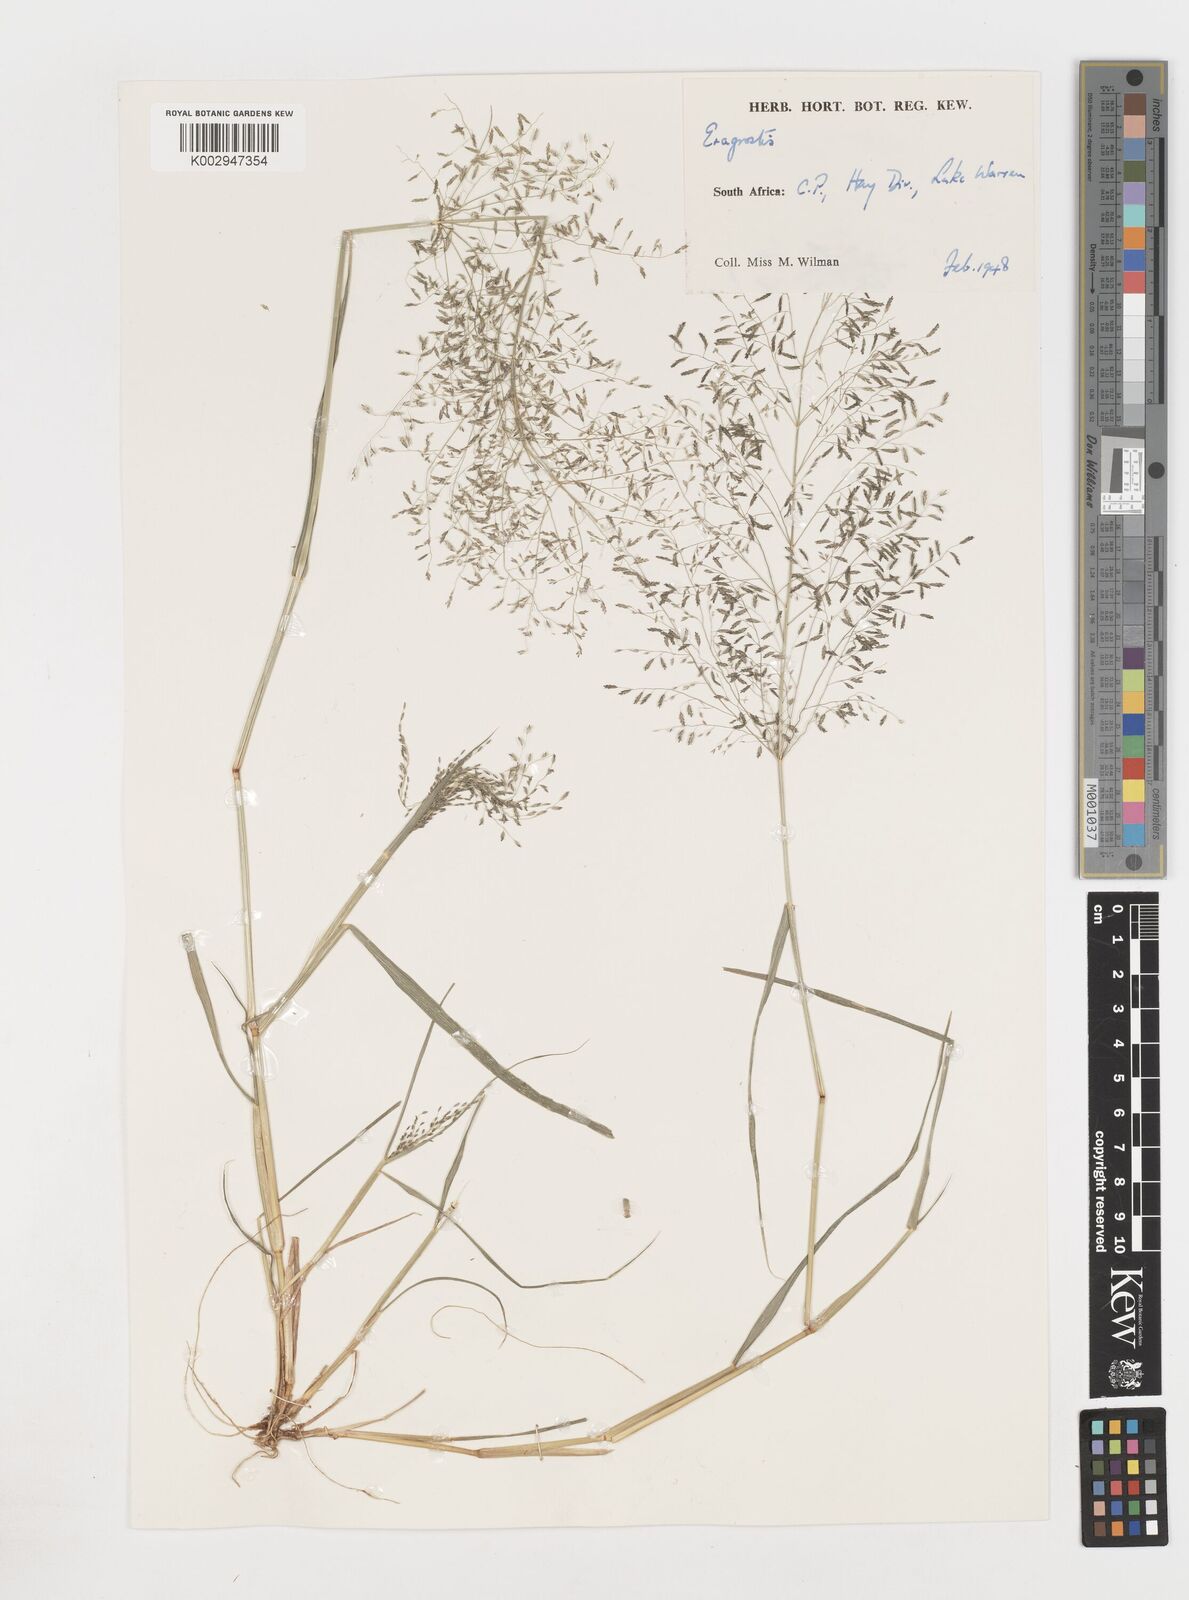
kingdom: Plantae
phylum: Tracheophyta
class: Liliopsida
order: Poales
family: Poaceae
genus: Eragrostis
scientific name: Eragrostis
